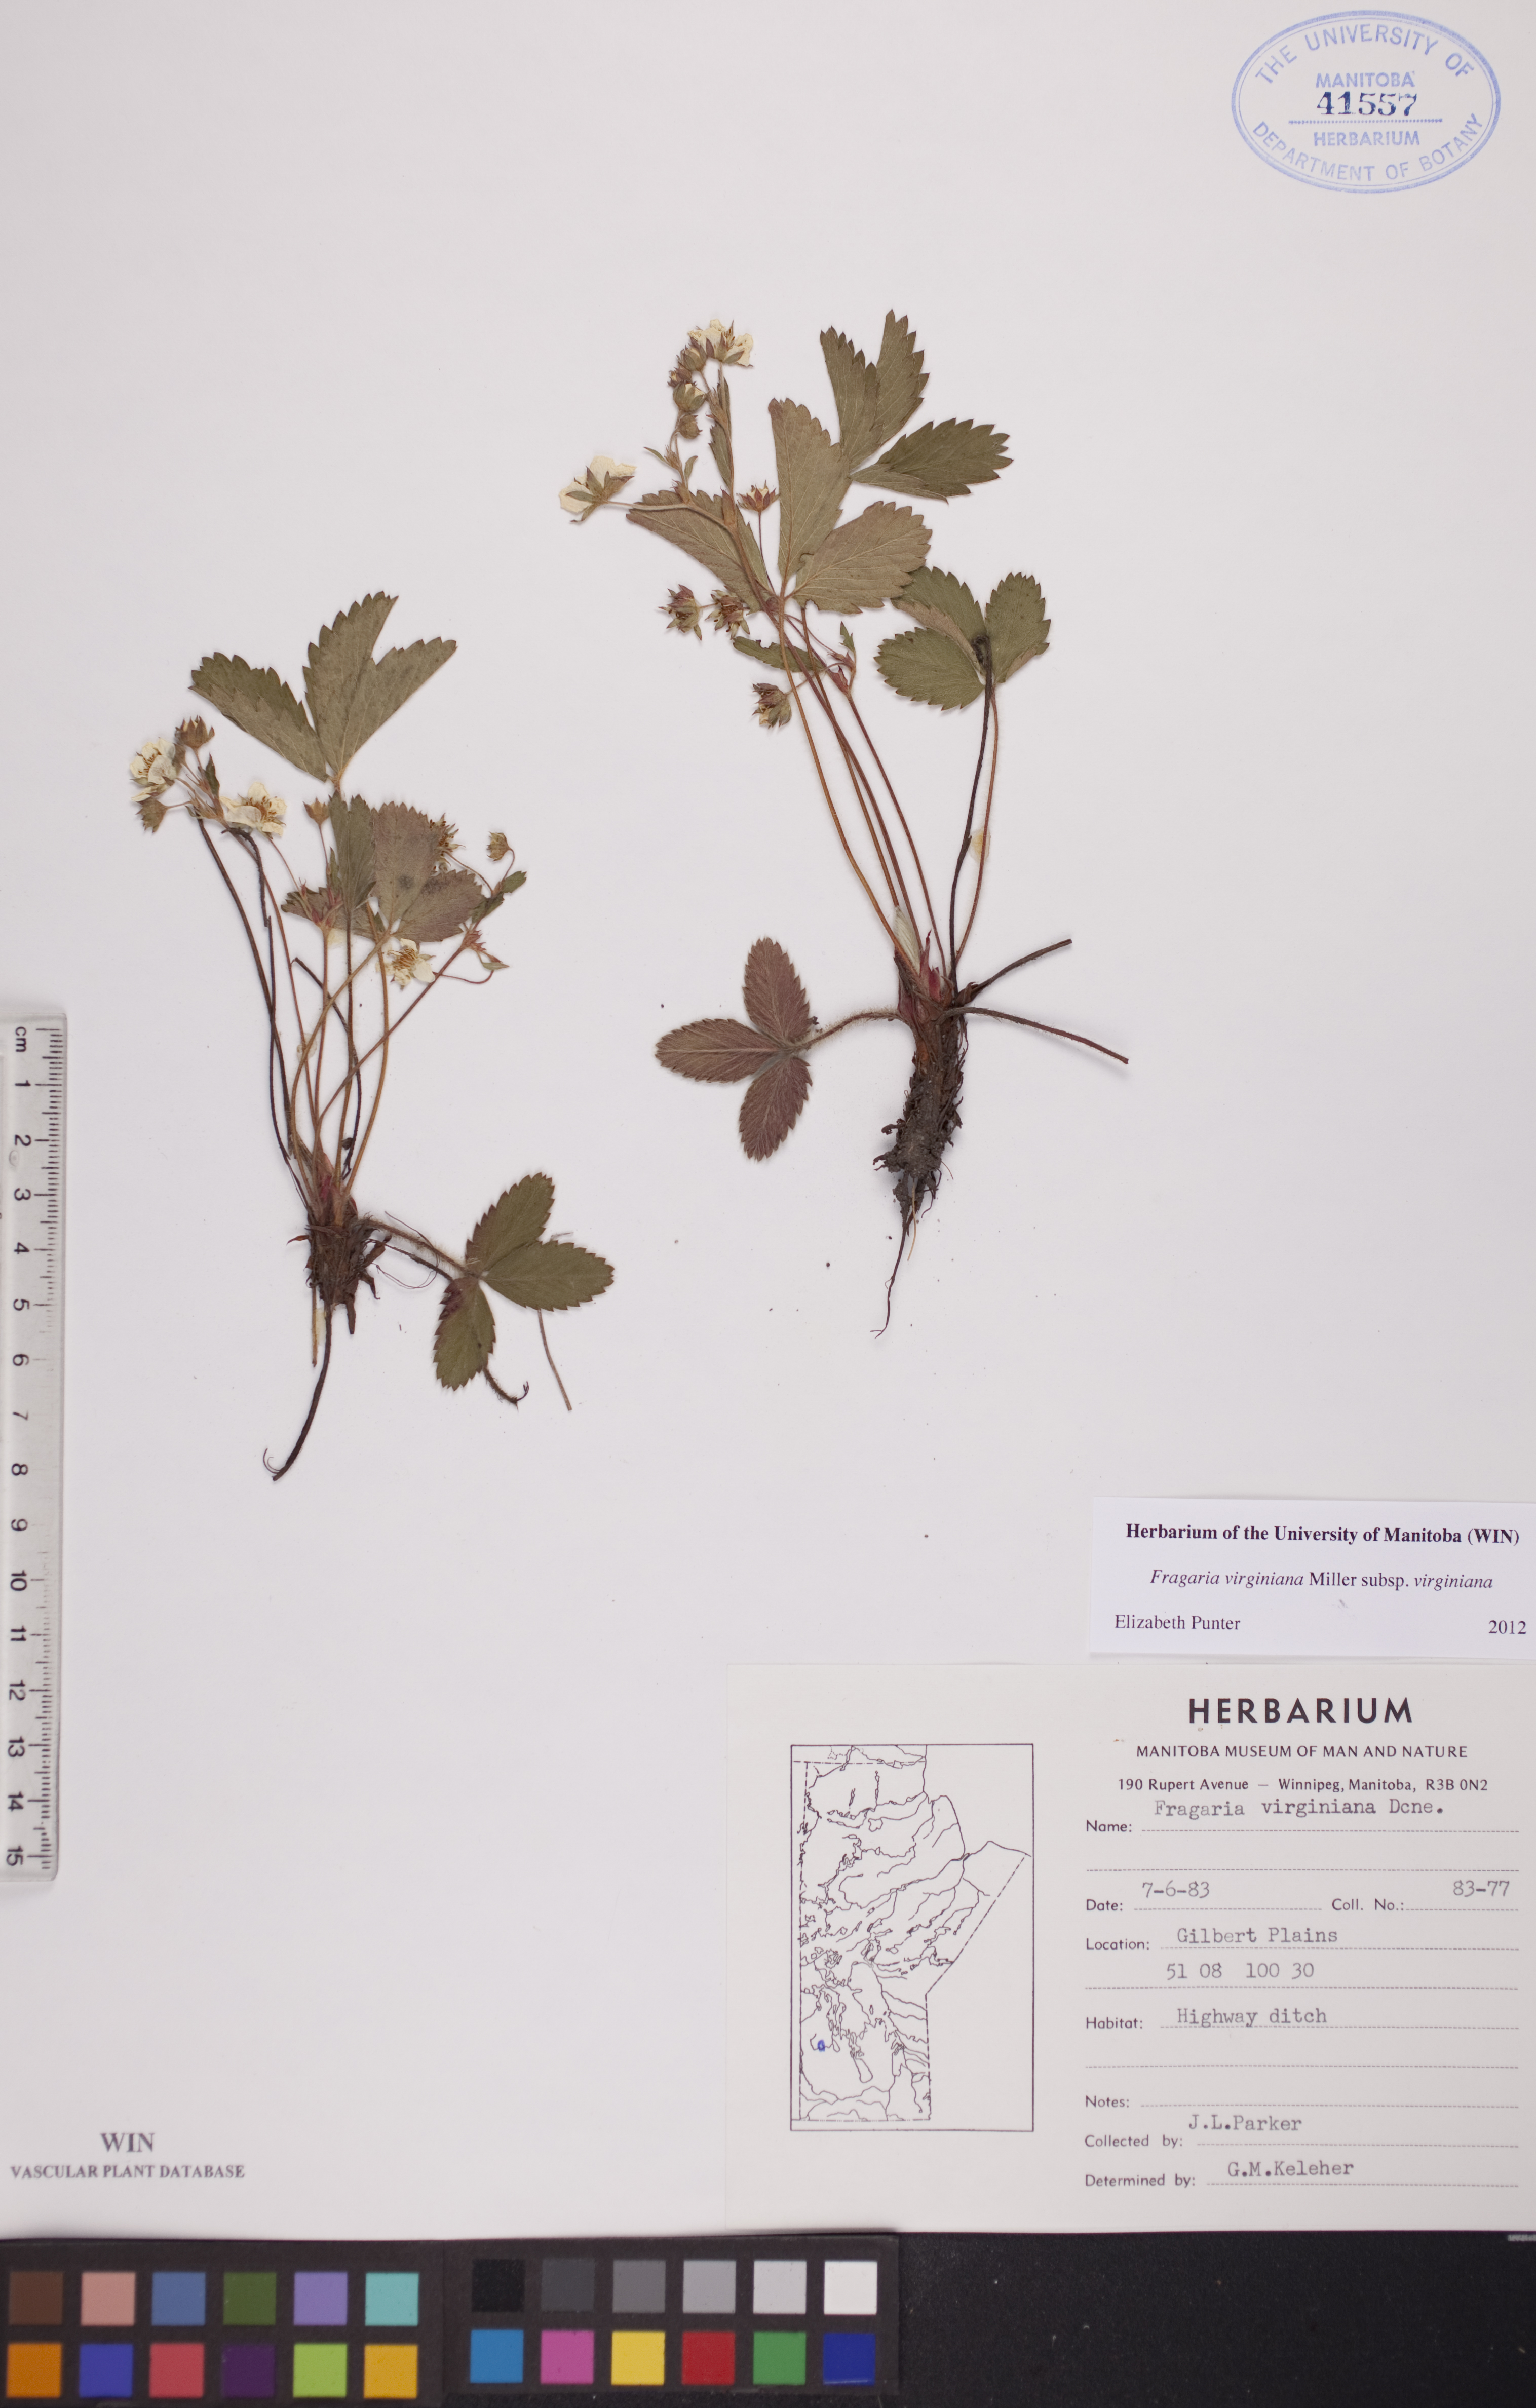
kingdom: Plantae
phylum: Tracheophyta
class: Magnoliopsida
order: Rosales
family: Rosaceae
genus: Fragaria
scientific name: Fragaria virginiana
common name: Thickleaved wild strawberry
